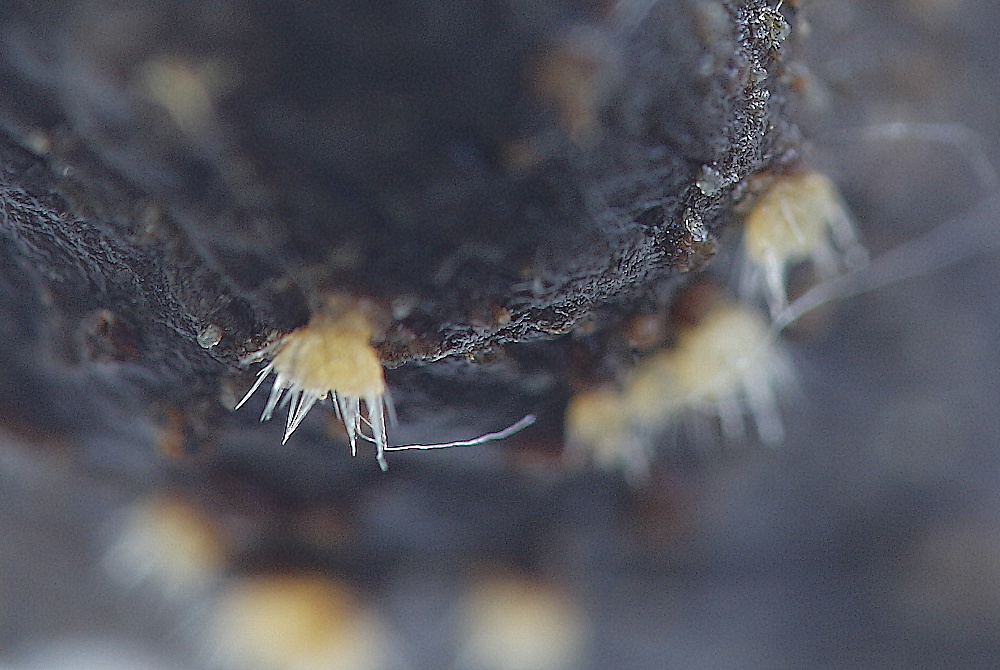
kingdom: Fungi
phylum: Ascomycota
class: Pezizomycetes
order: Pezizales
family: Ascodesmidaceae
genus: Lasiobolus
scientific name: Lasiobolus
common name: øjebæger
